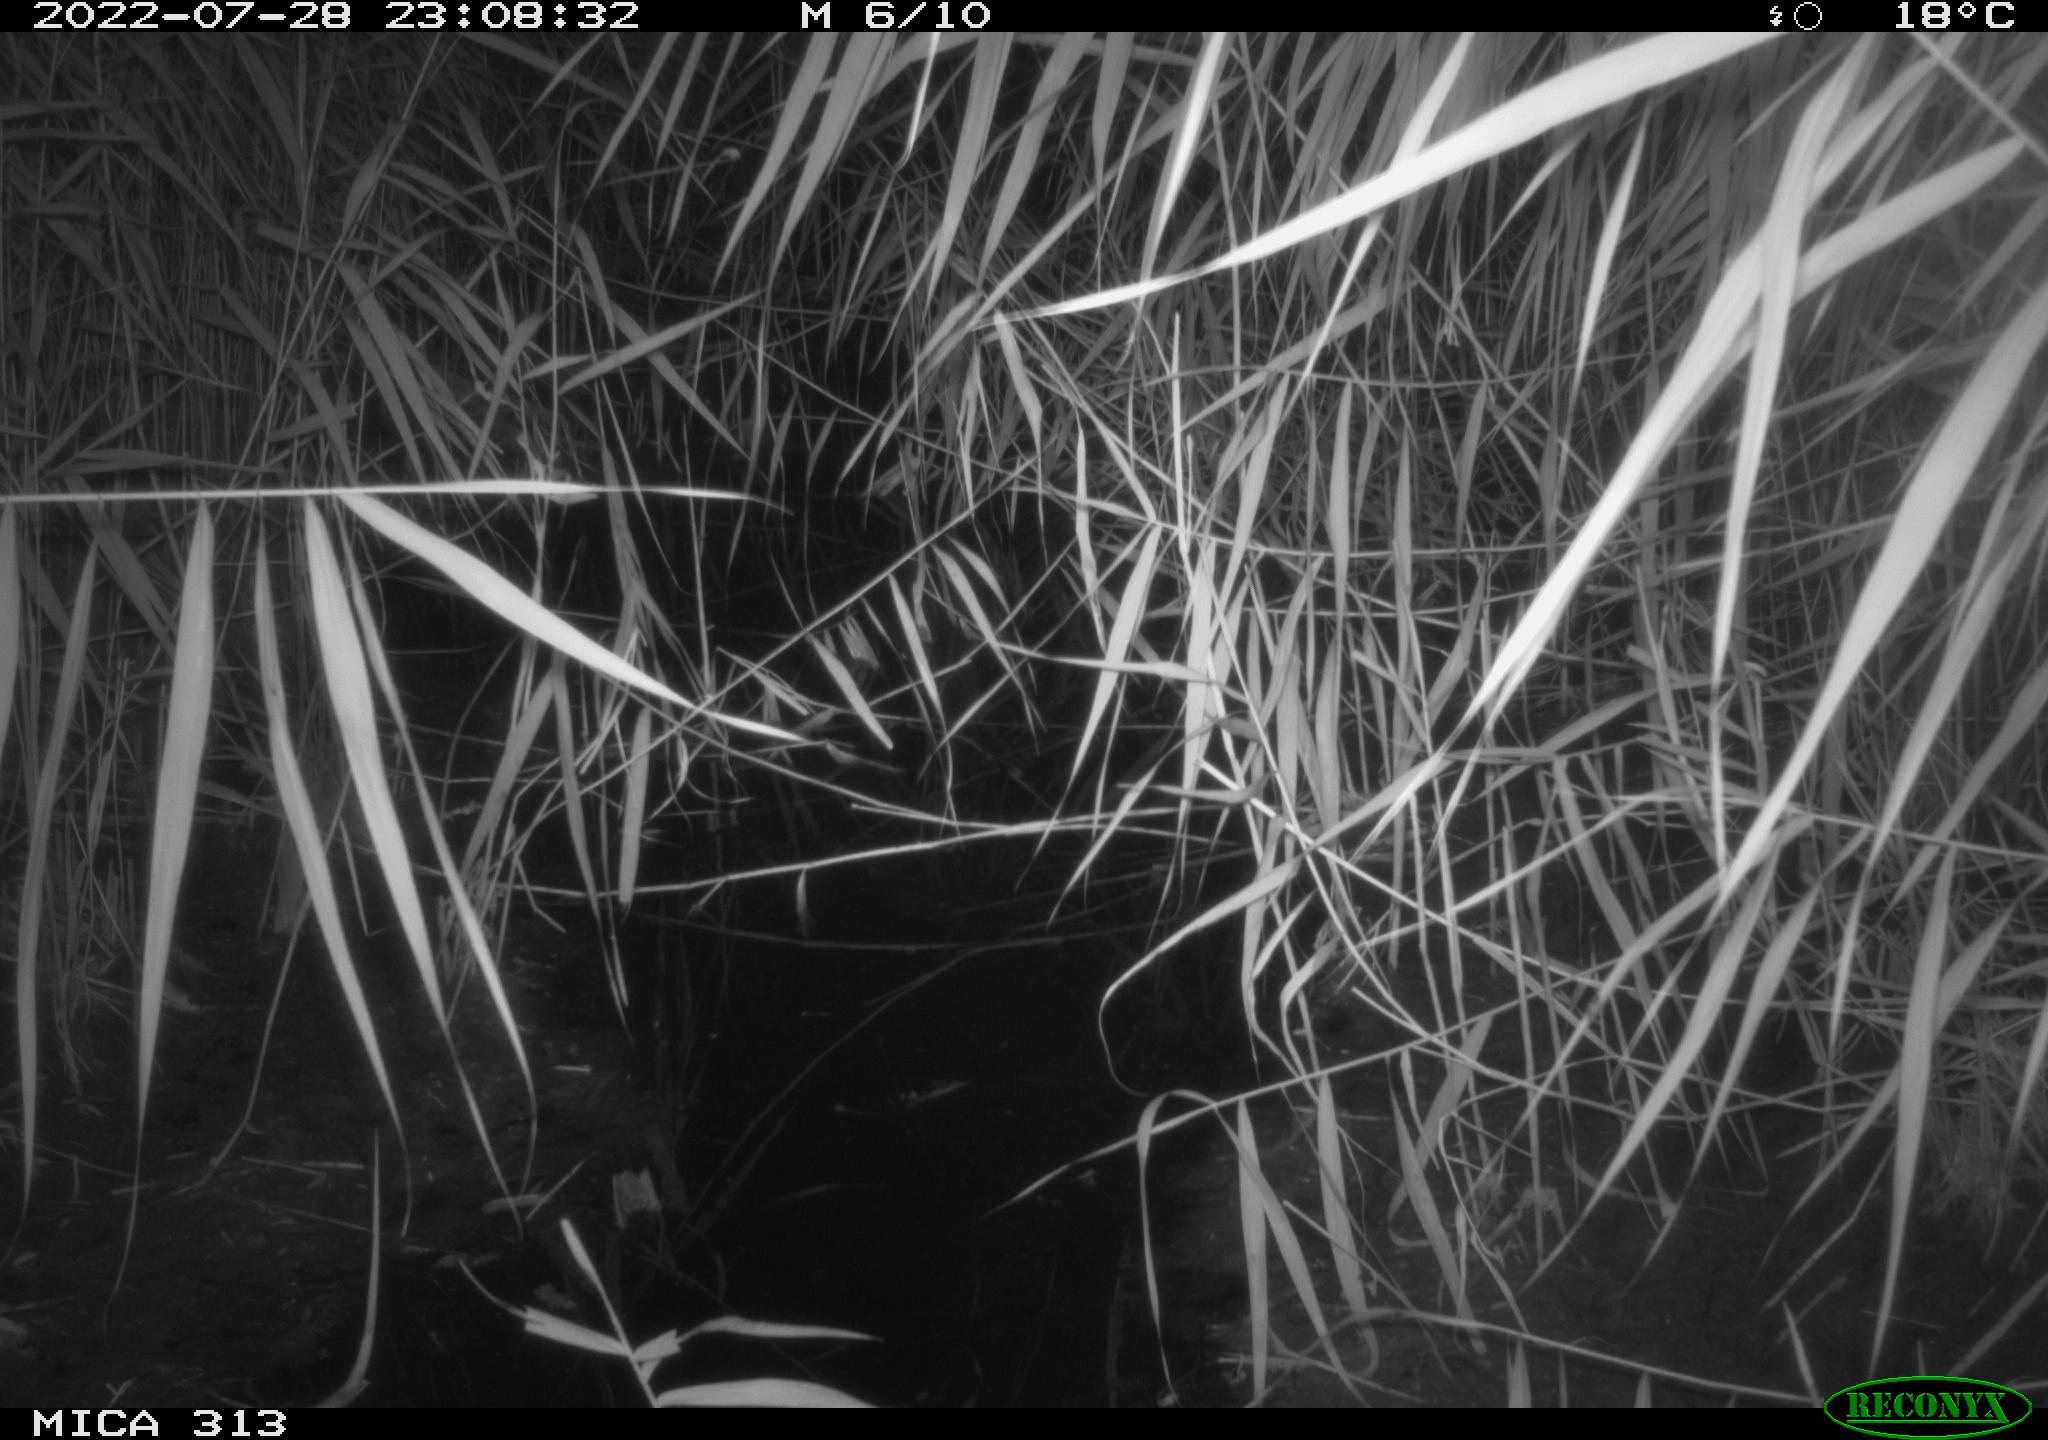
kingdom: Animalia
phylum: Chordata
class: Mammalia
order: Rodentia
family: Muridae
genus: Rattus
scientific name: Rattus norvegicus
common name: Brown rat
